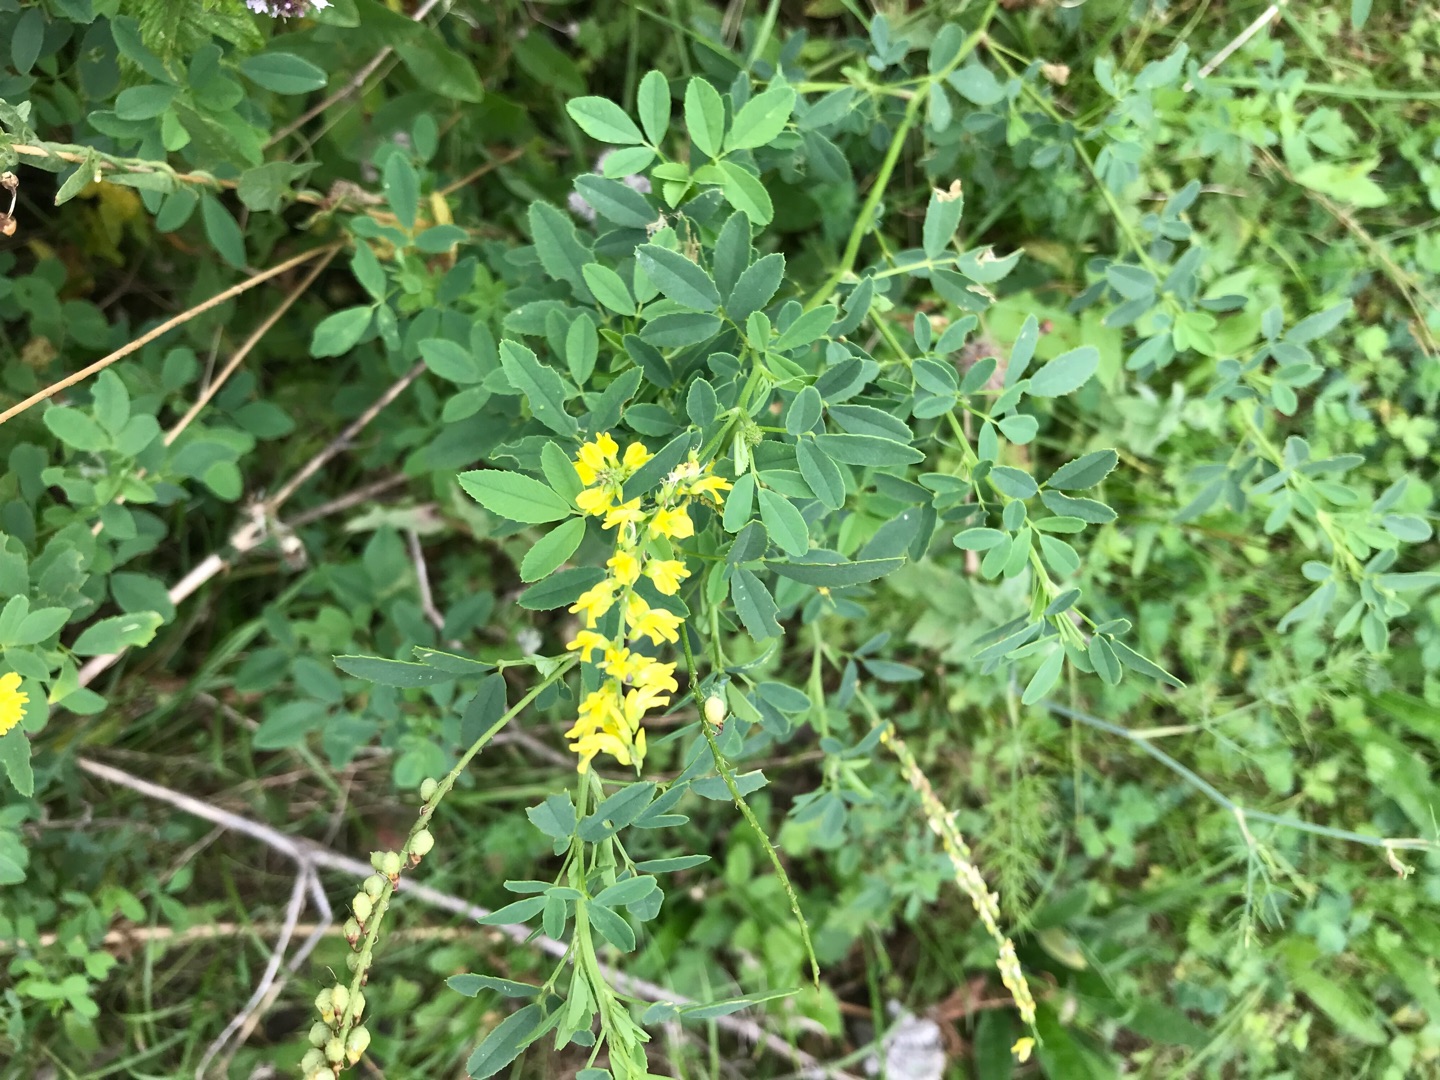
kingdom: Plantae
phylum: Tracheophyta
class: Magnoliopsida
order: Fabales
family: Fabaceae
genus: Melilotus
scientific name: Melilotus officinalis
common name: Mark-stenkløver
